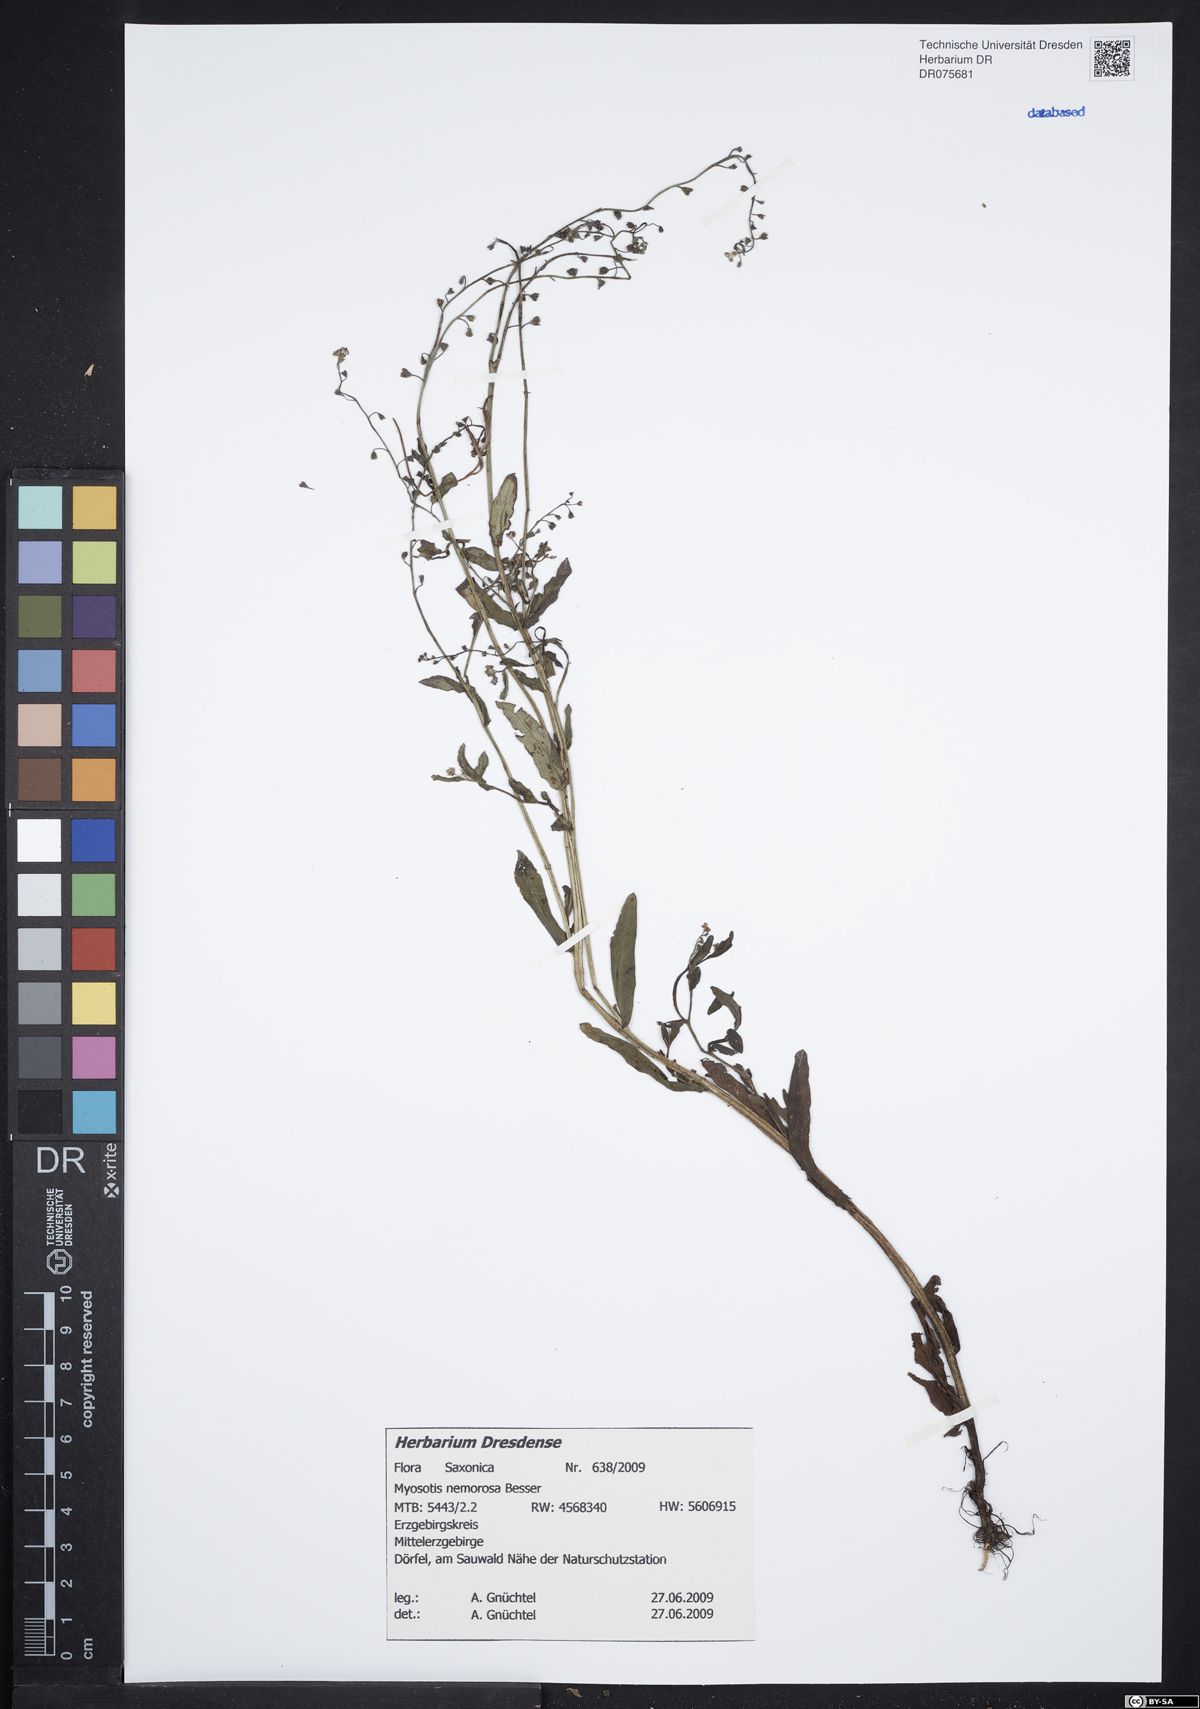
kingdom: Plantae
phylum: Tracheophyta
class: Magnoliopsida
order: Boraginales
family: Boraginaceae
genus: Myosotis
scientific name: Myosotis nemorosa
